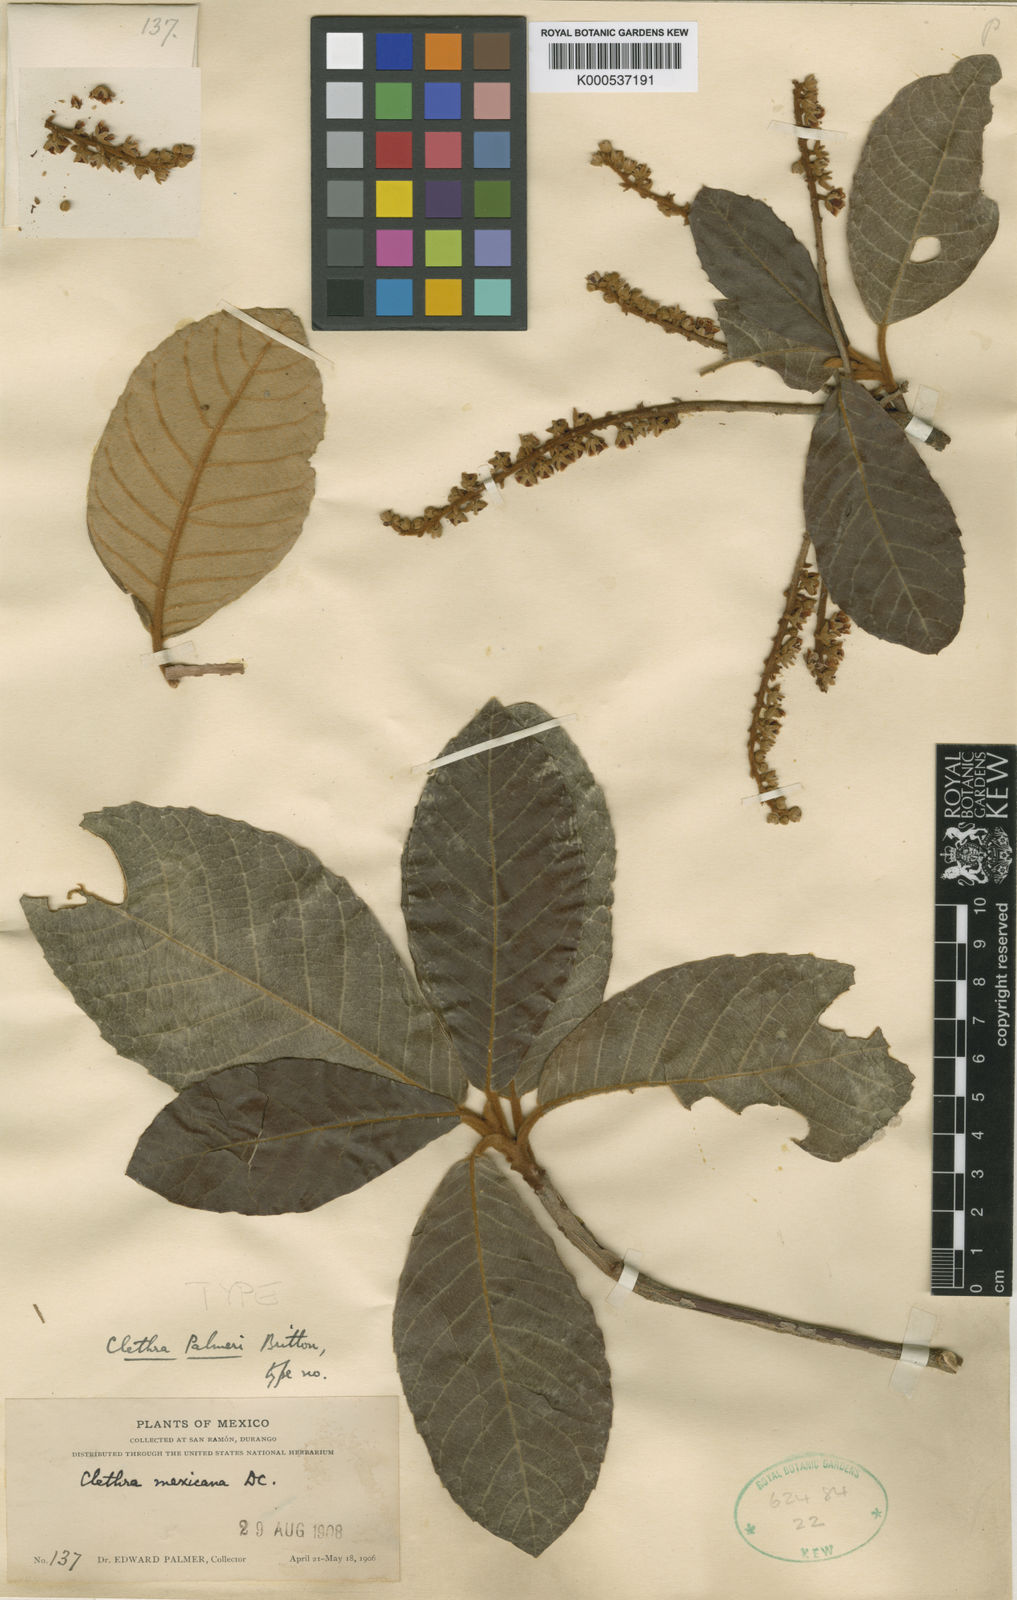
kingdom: Plantae
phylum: Tracheophyta
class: Magnoliopsida
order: Ericales
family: Clethraceae
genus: Clethra
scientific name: Clethra rosei
